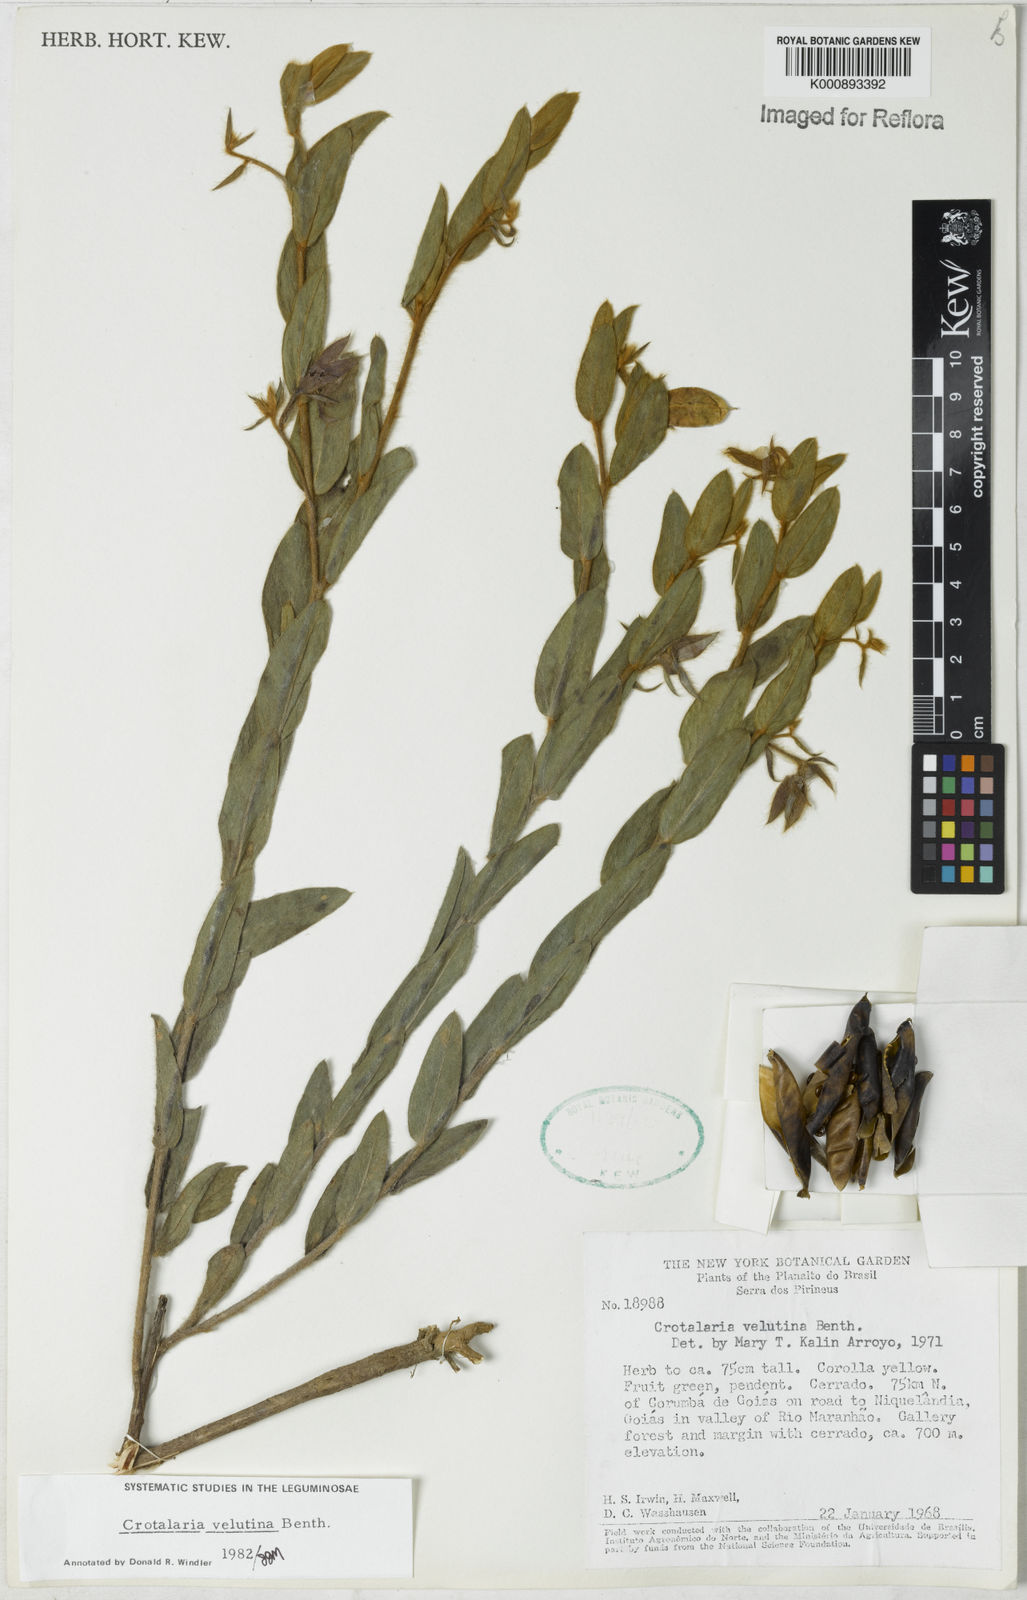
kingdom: Plantae
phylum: Tracheophyta
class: Magnoliopsida
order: Fabales
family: Fabaceae
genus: Crotalaria
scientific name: Crotalaria balansae
